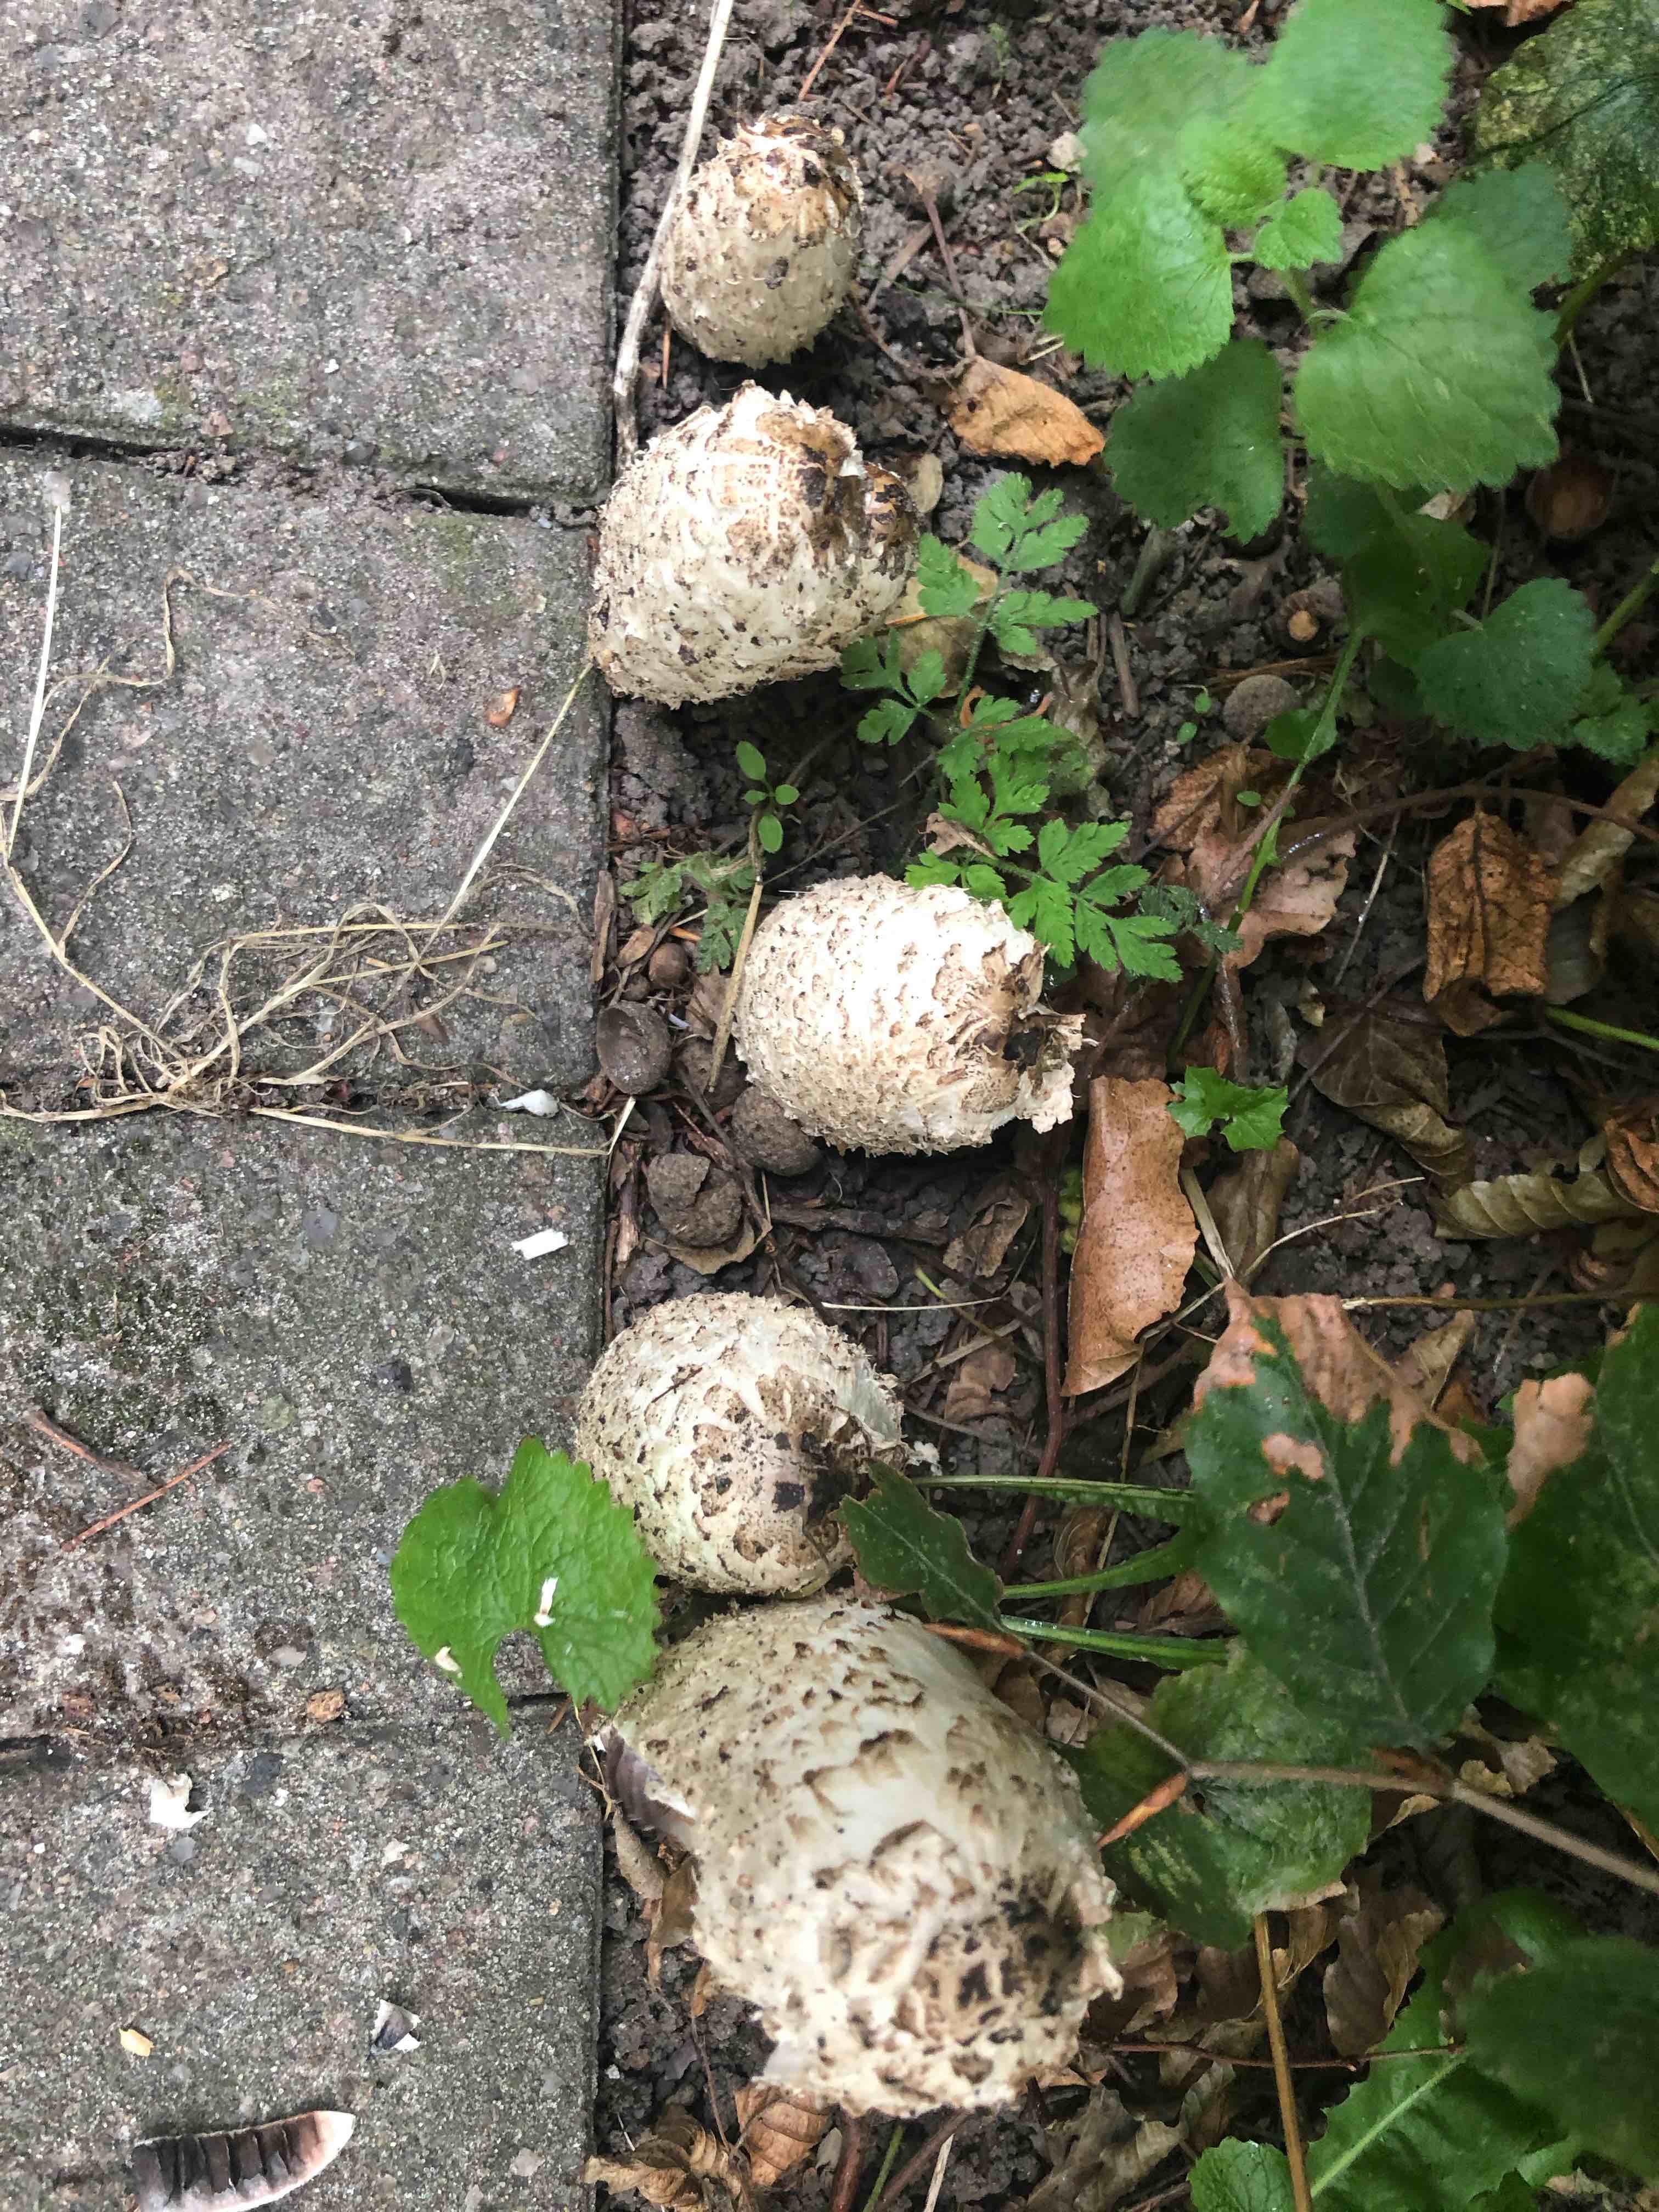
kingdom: Fungi
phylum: Basidiomycota
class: Agaricomycetes
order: Agaricales
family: Agaricaceae
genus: Coprinus
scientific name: Coprinus comatus
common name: stor parykhat
